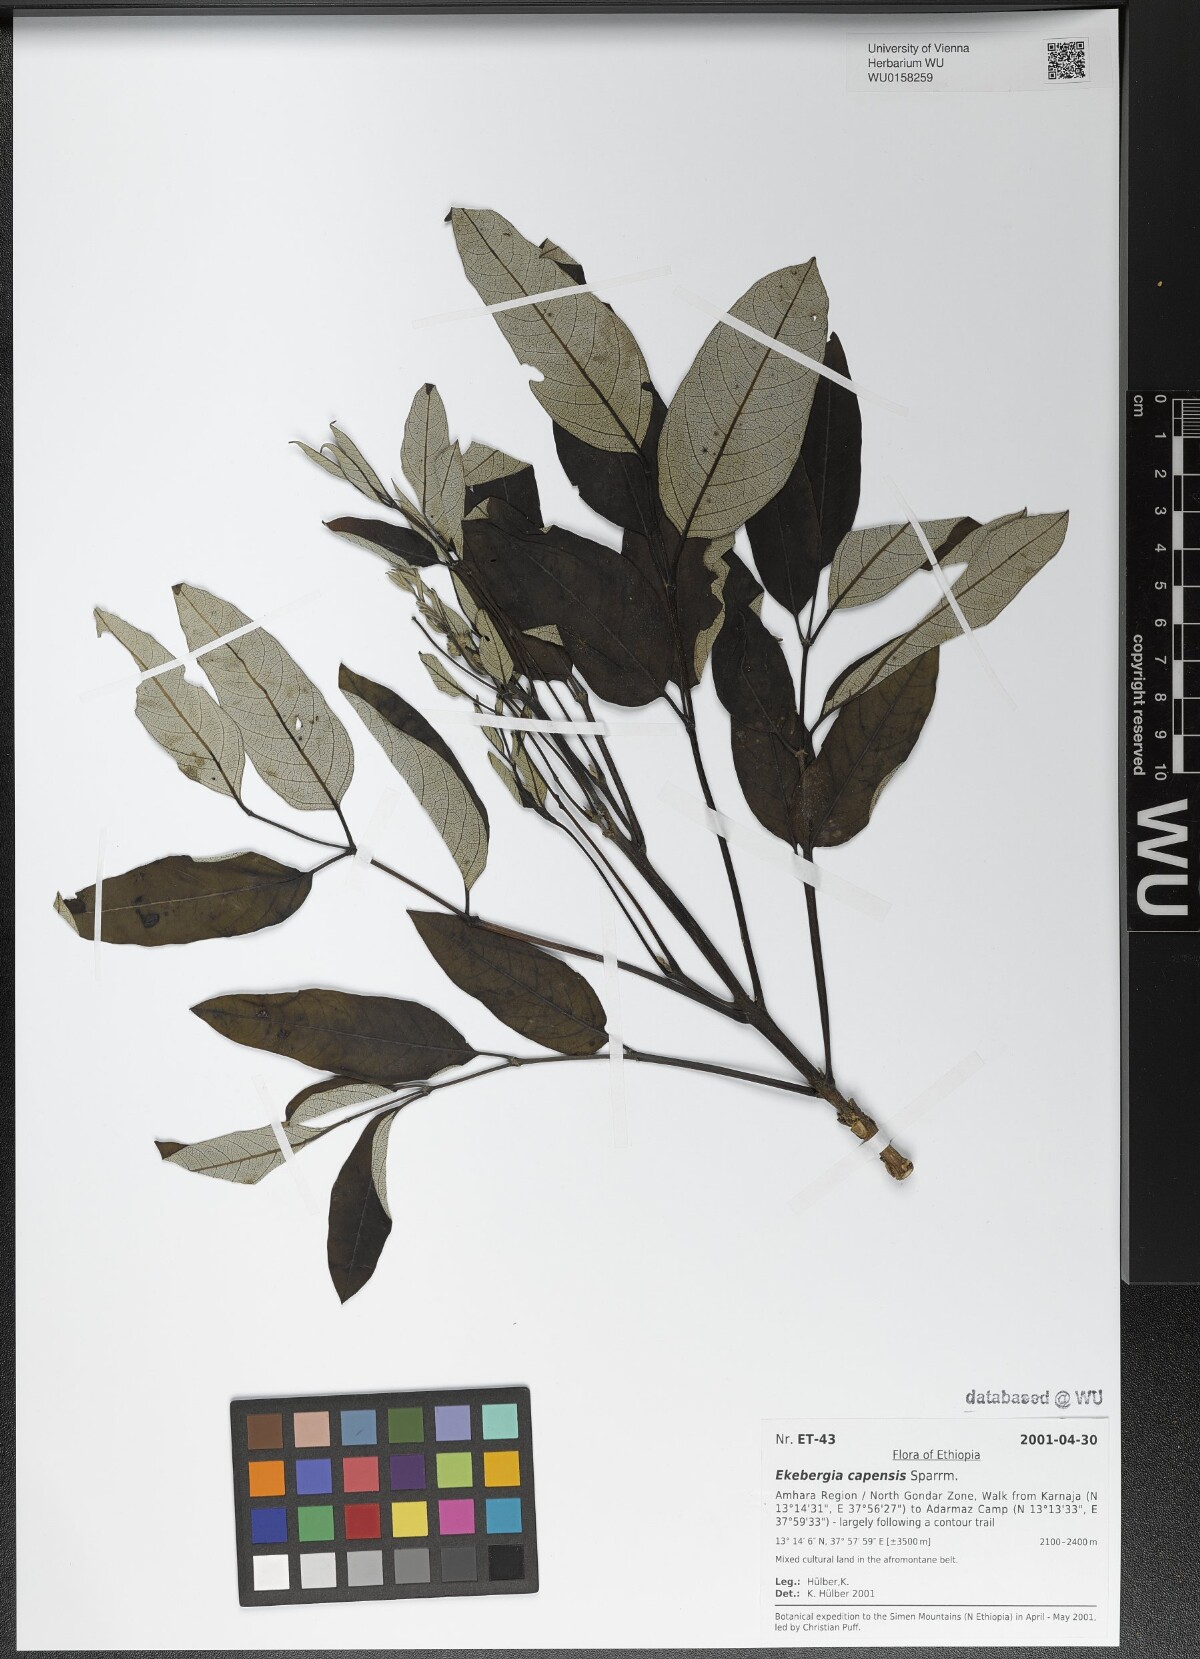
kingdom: Plantae
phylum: Tracheophyta
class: Magnoliopsida
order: Sapindales
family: Meliaceae
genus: Ekebergia
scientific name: Ekebergia capensis
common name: Cape-ash
